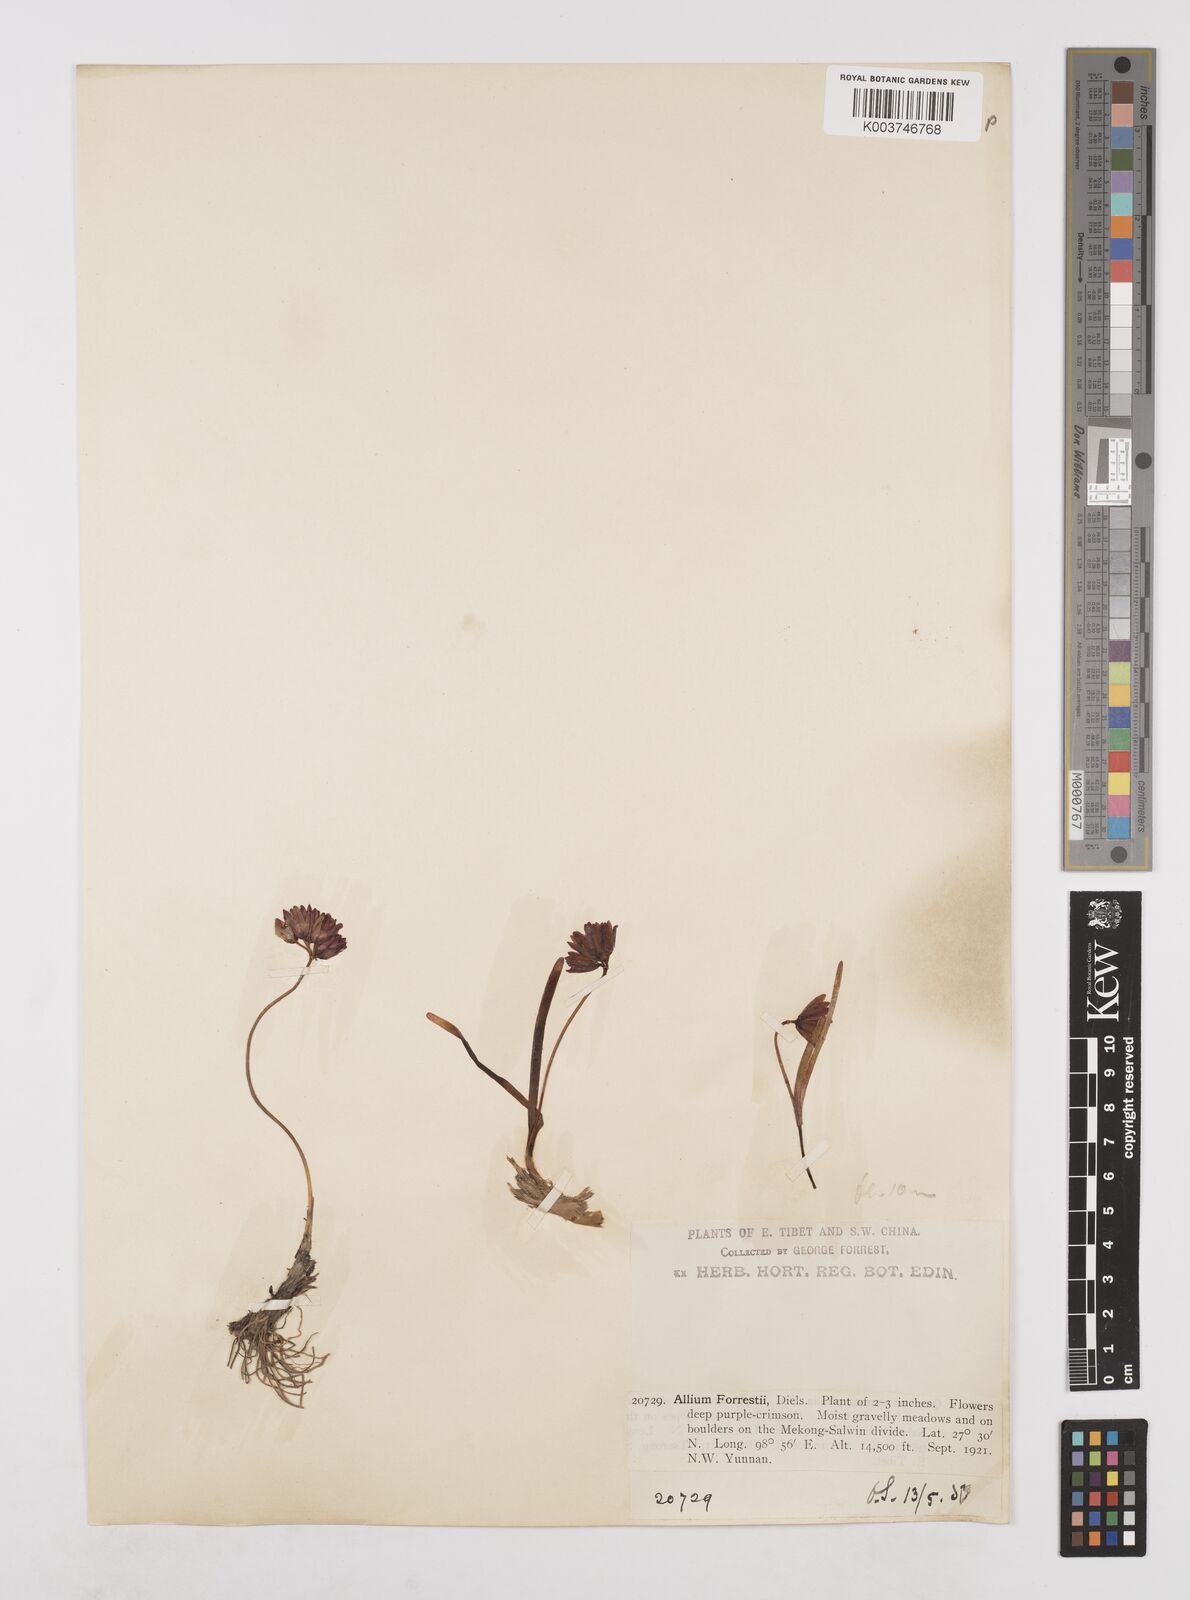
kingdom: Plantae
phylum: Tracheophyta
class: Liliopsida
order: Asparagales
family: Amaryllidaceae
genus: Allium
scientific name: Allium forrestii
